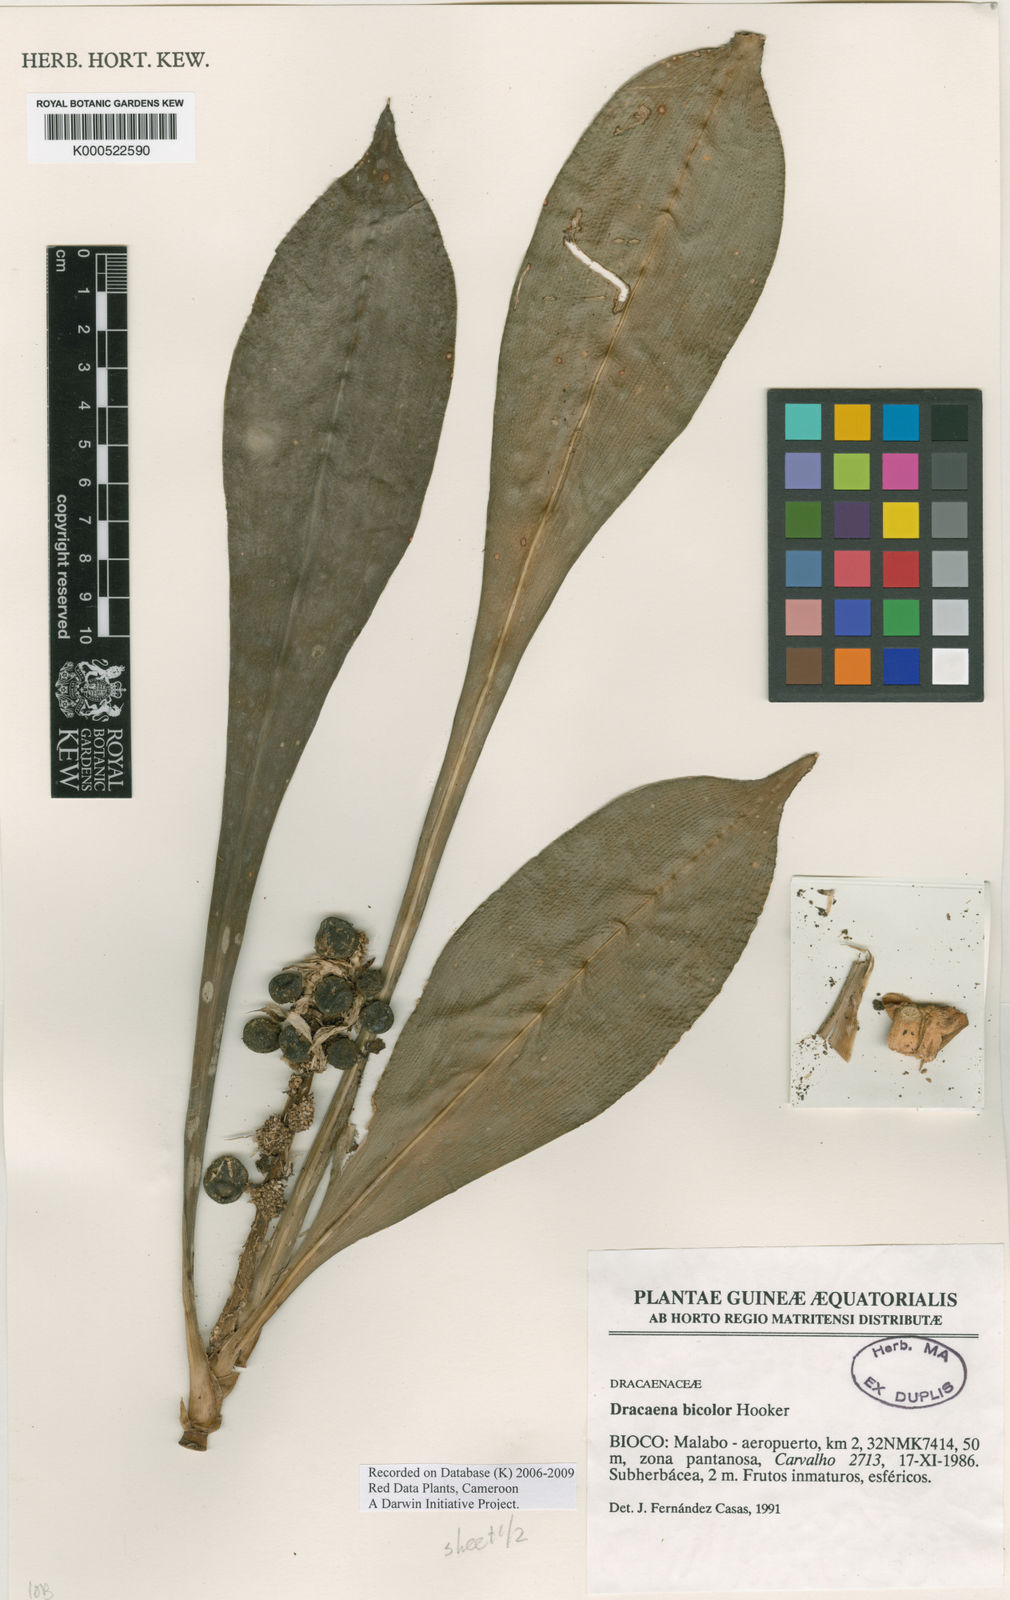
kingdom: Plantae
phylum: Tracheophyta
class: Liliopsida
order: Asparagales
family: Asparagaceae
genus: Dracaena
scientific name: Dracaena bicolor
